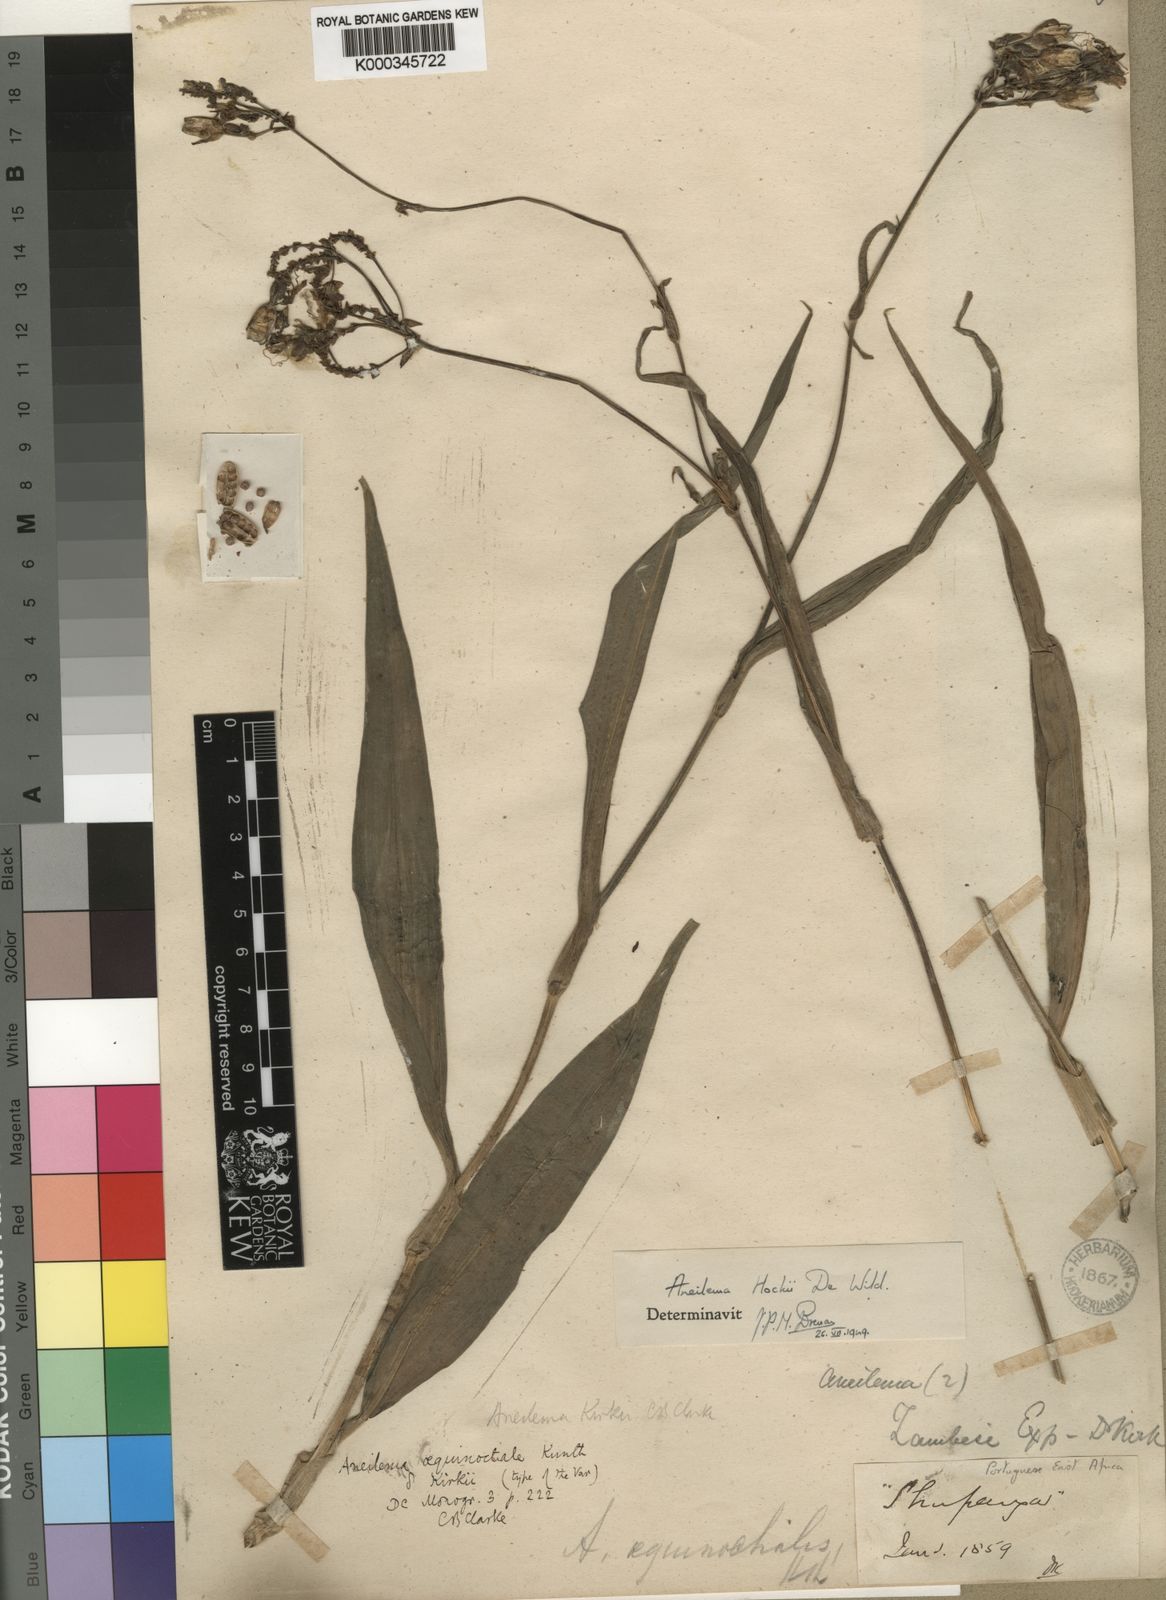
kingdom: Plantae
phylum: Tracheophyta
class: Liliopsida
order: Commelinales
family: Commelinaceae
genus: Aneilema
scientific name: Aneilema hockii
